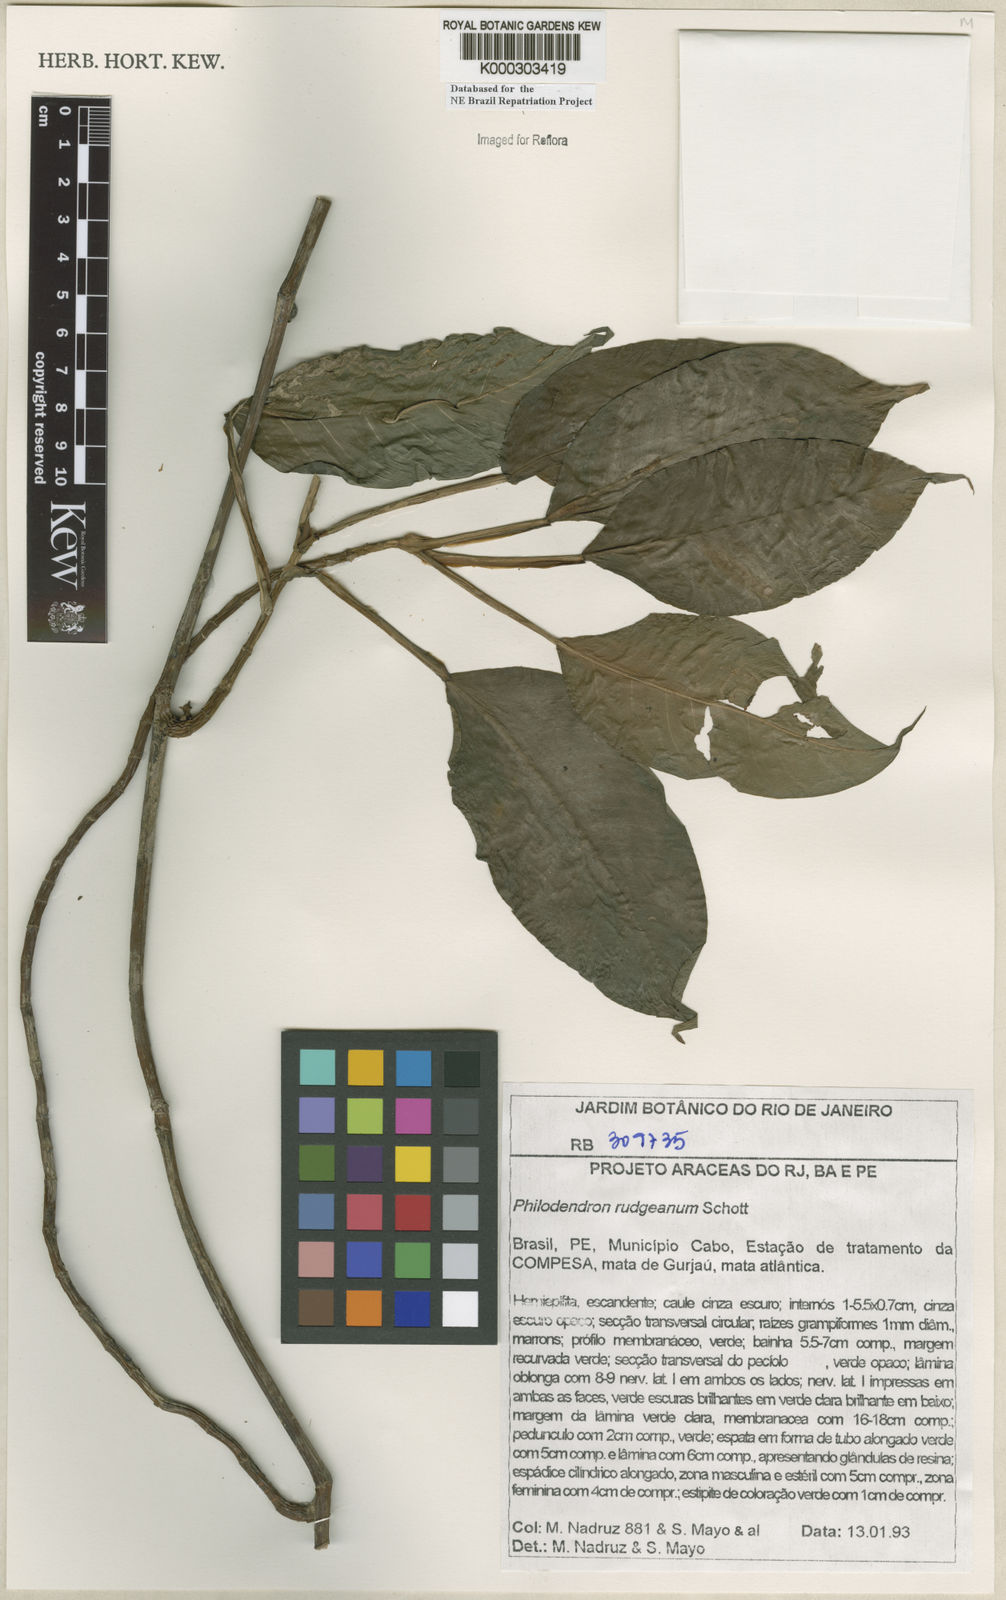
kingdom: Plantae
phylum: Tracheophyta
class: Liliopsida
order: Alismatales
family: Araceae
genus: Philodendron
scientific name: Philodendron rudgeanum
